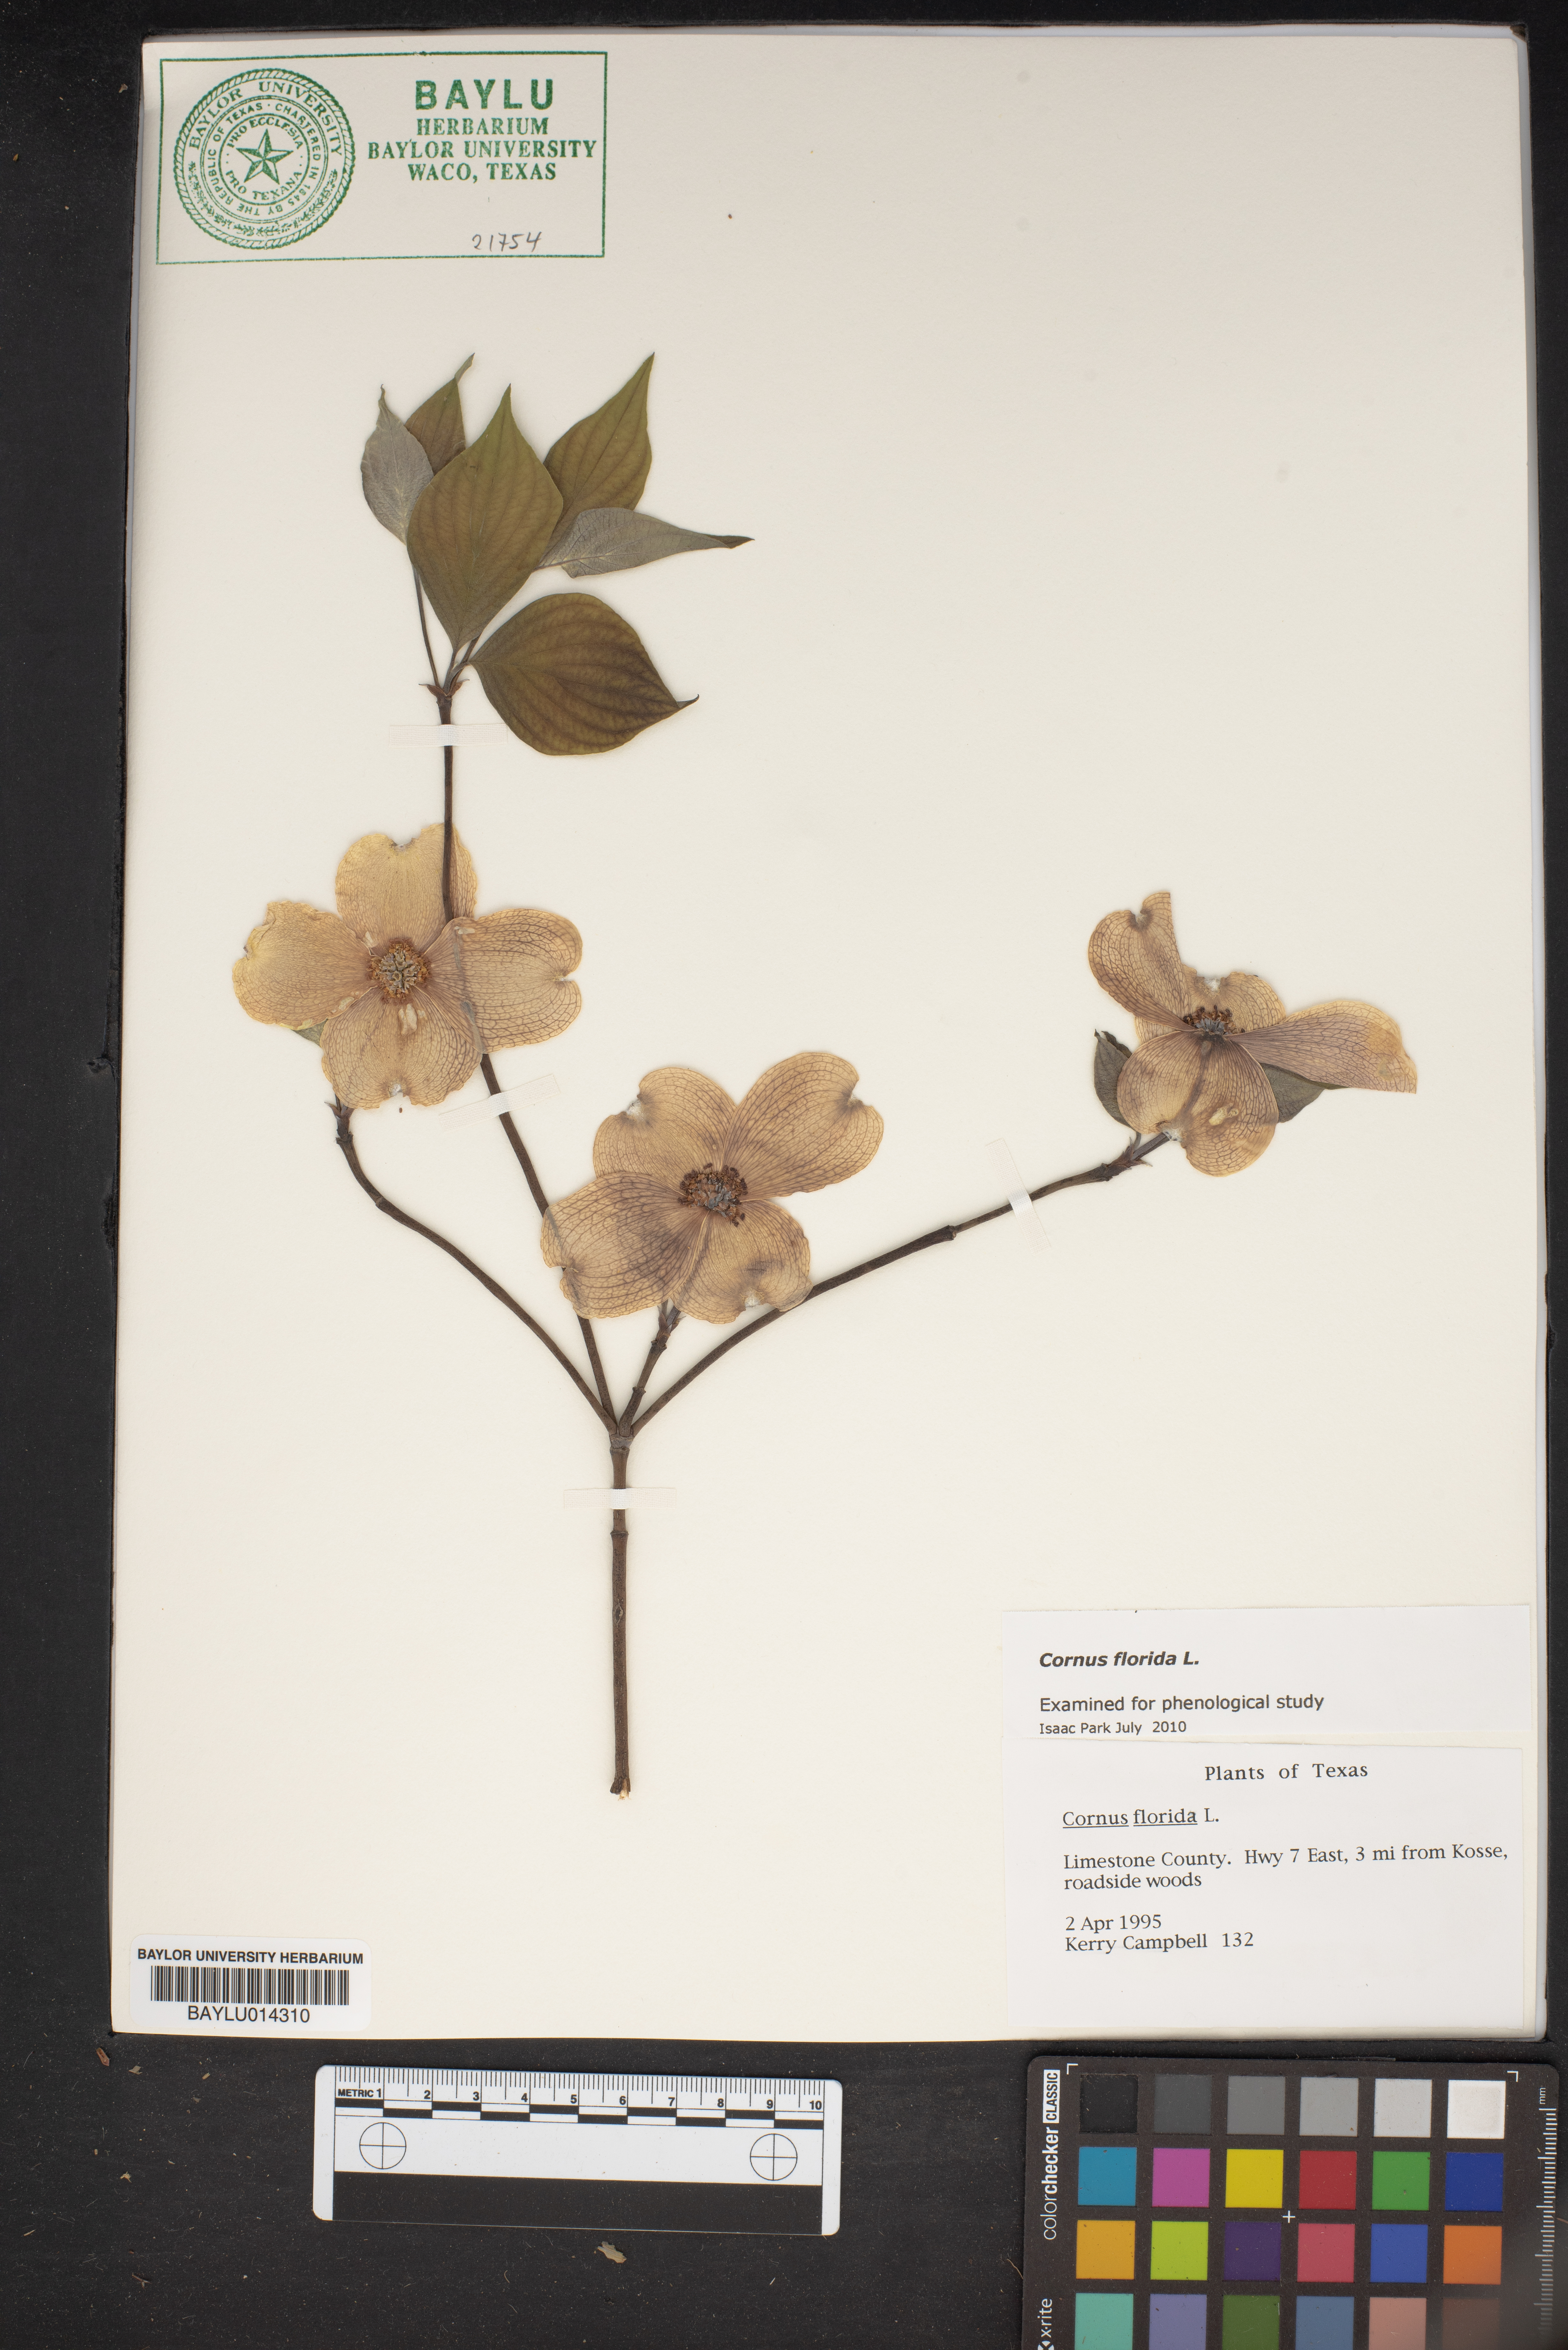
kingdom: Plantae
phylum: Tracheophyta
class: Magnoliopsida
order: Cornales
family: Cornaceae
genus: Cornus
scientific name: Cornus florida
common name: Flowering dogwood
